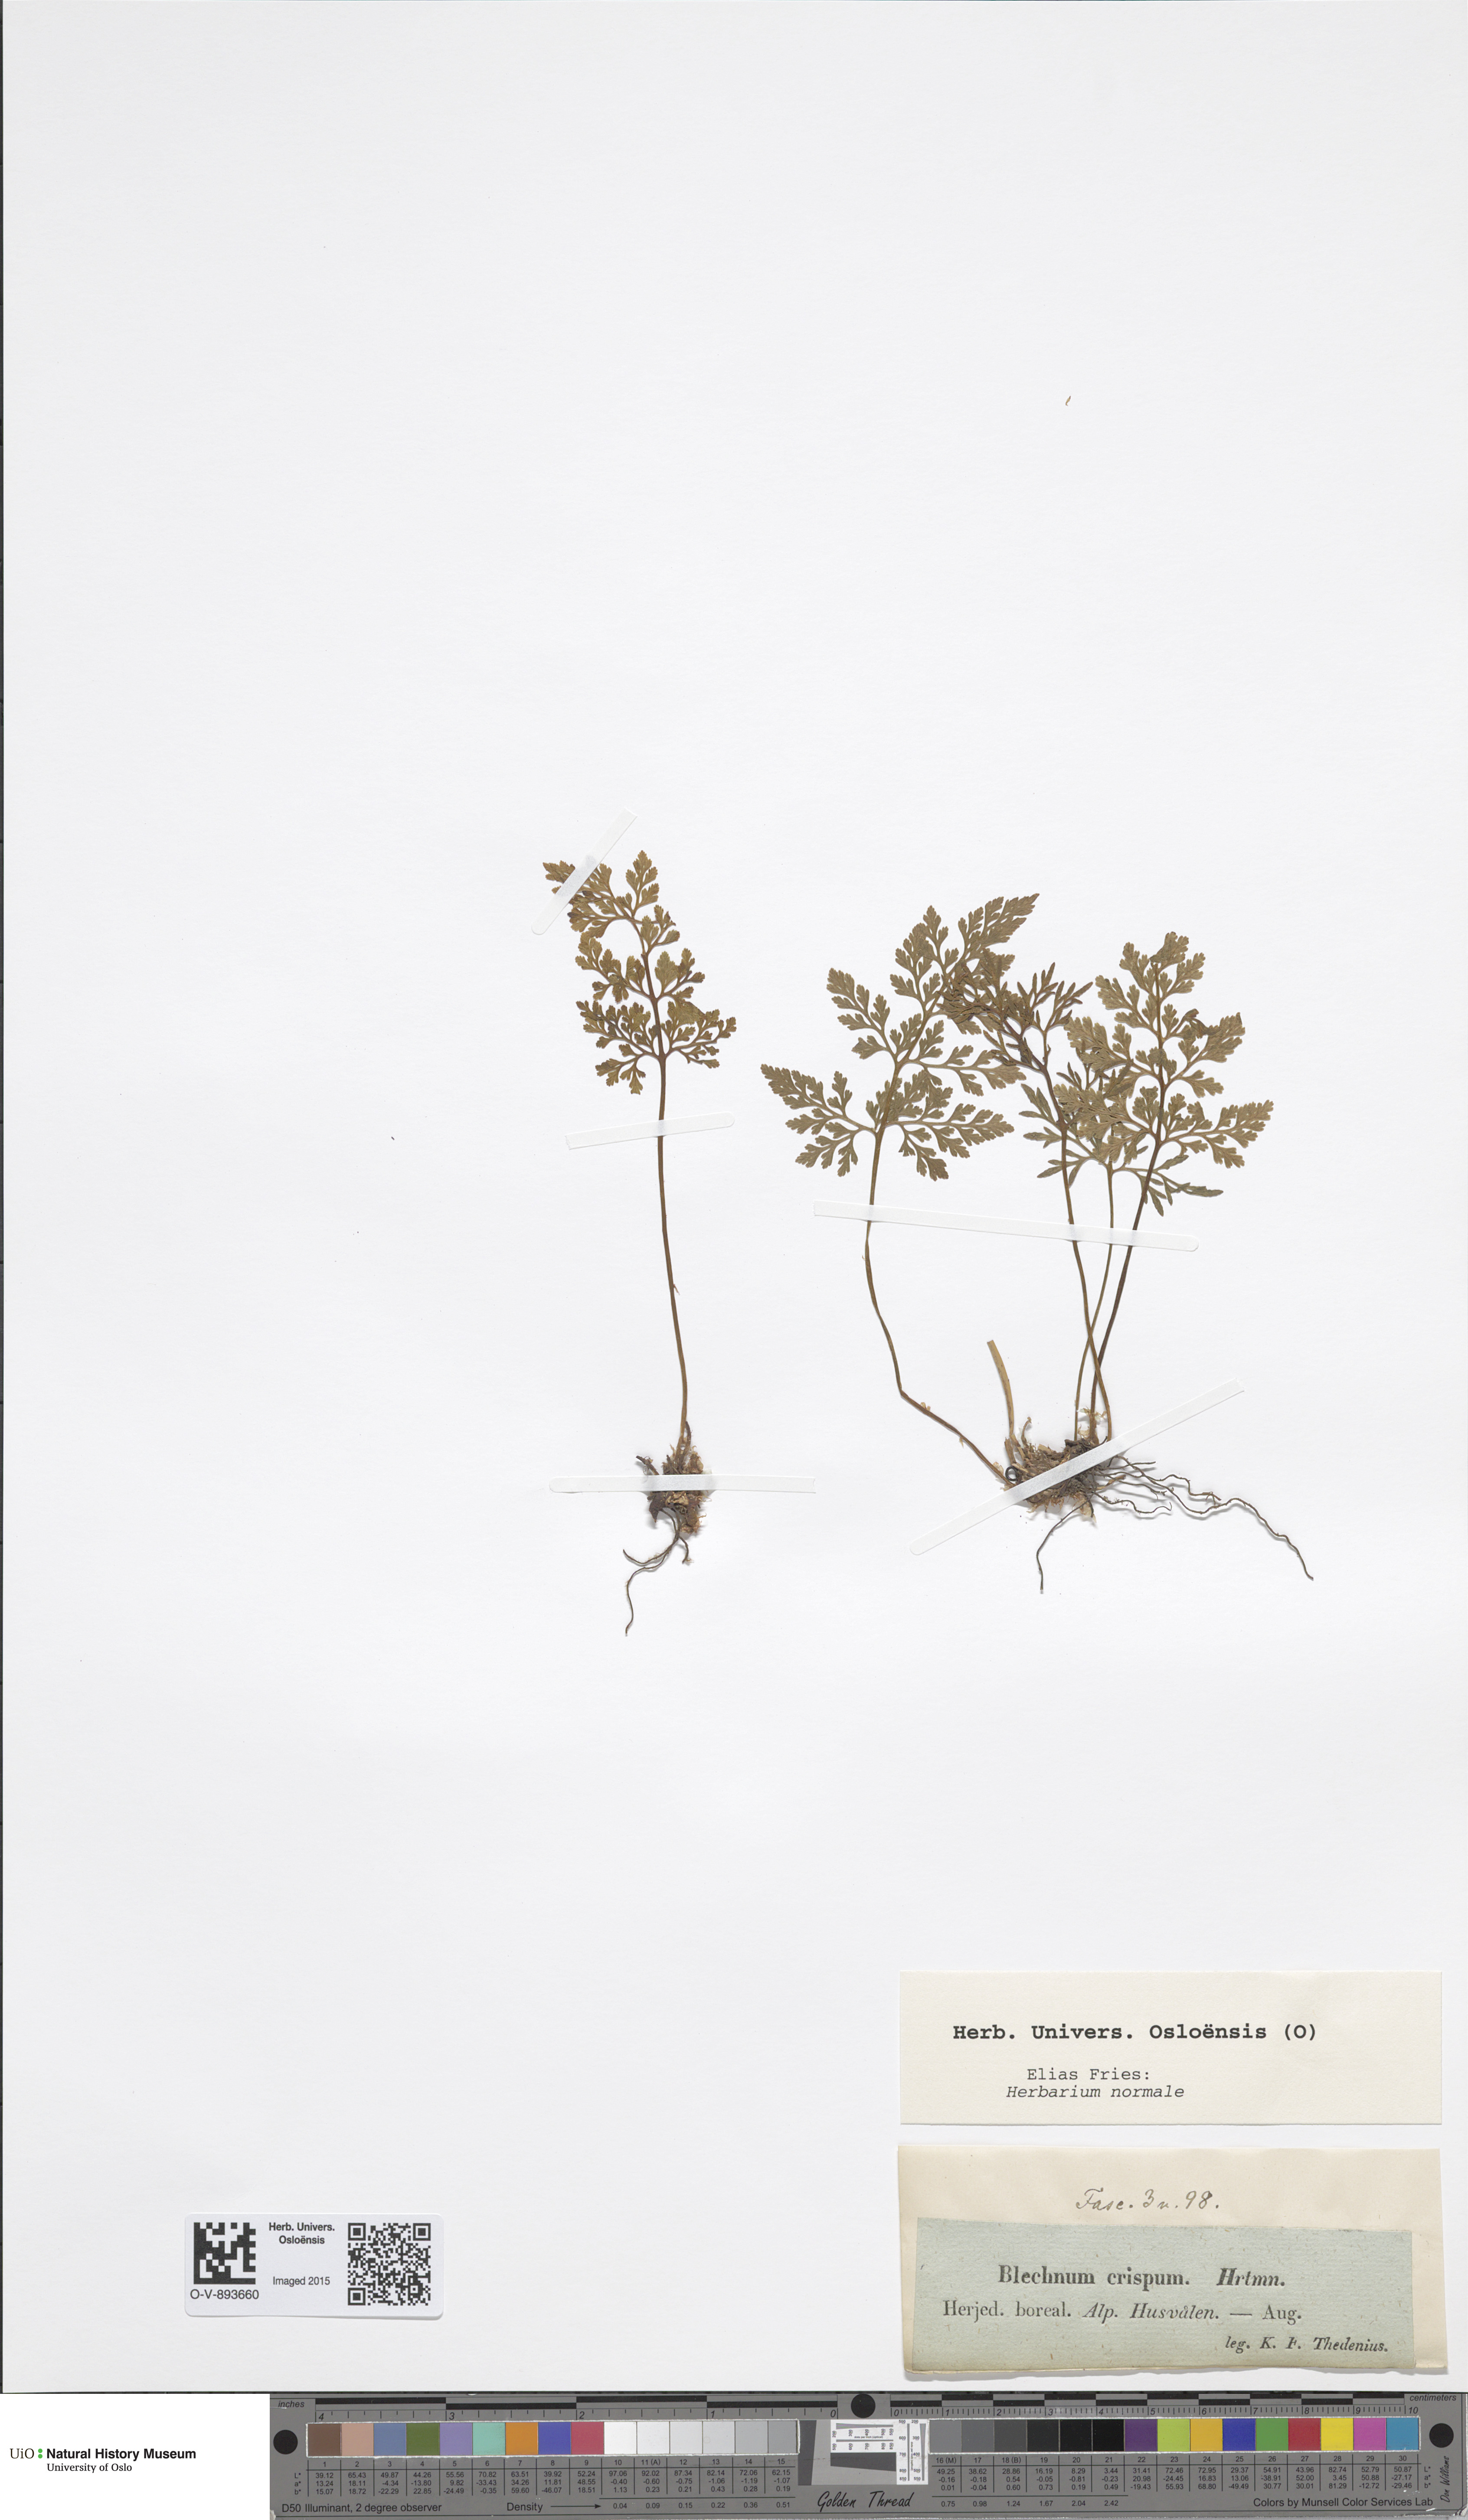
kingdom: Plantae
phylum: Tracheophyta
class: Polypodiopsida
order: Polypodiales
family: Pteridaceae
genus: Cryptogramma
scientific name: Cryptogramma crispa
